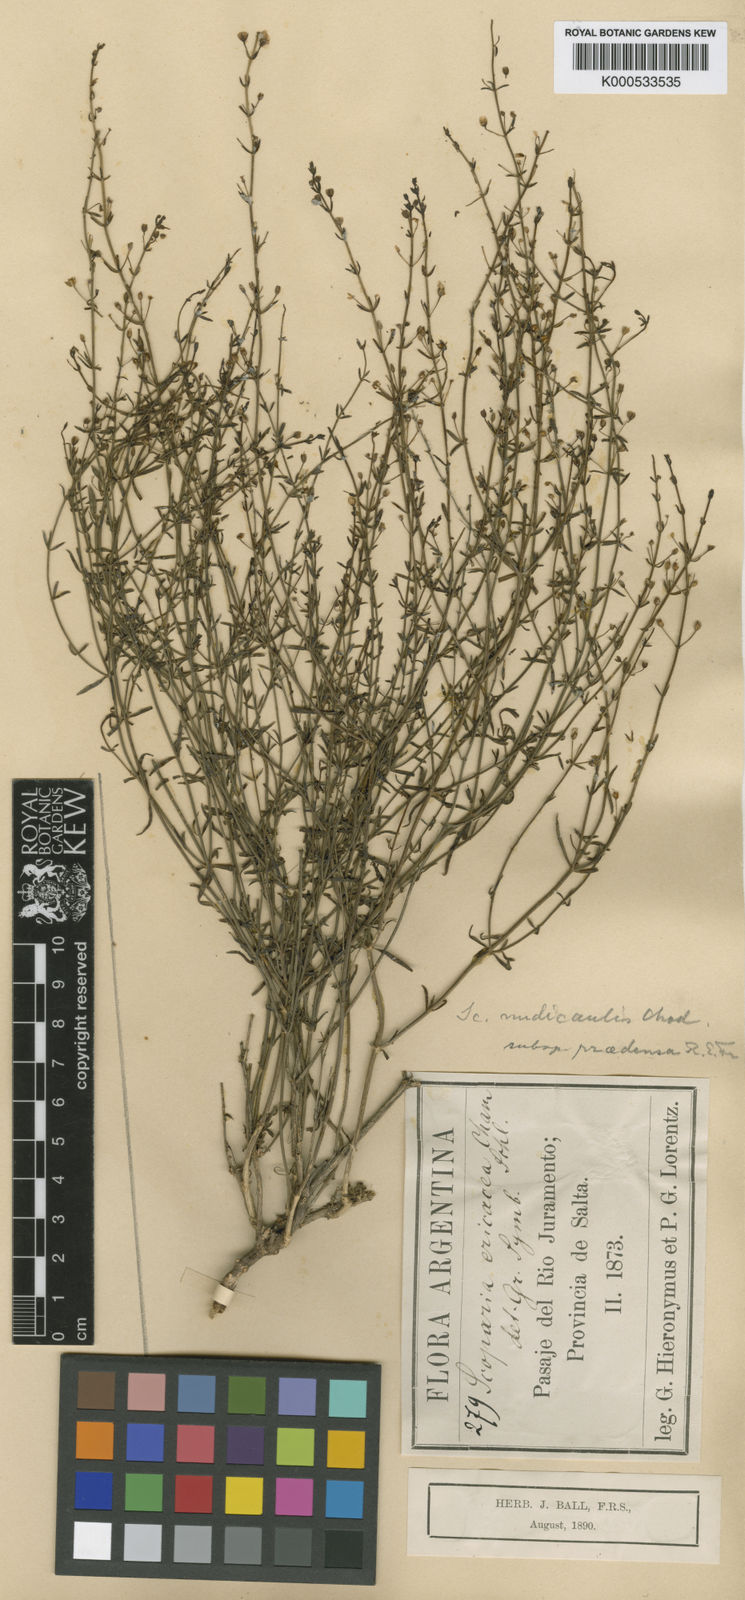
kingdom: Plantae
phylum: Tracheophyta
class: Magnoliopsida
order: Lamiales
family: Plantaginaceae
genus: Scoparia
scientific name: Scoparia nudicaulis
